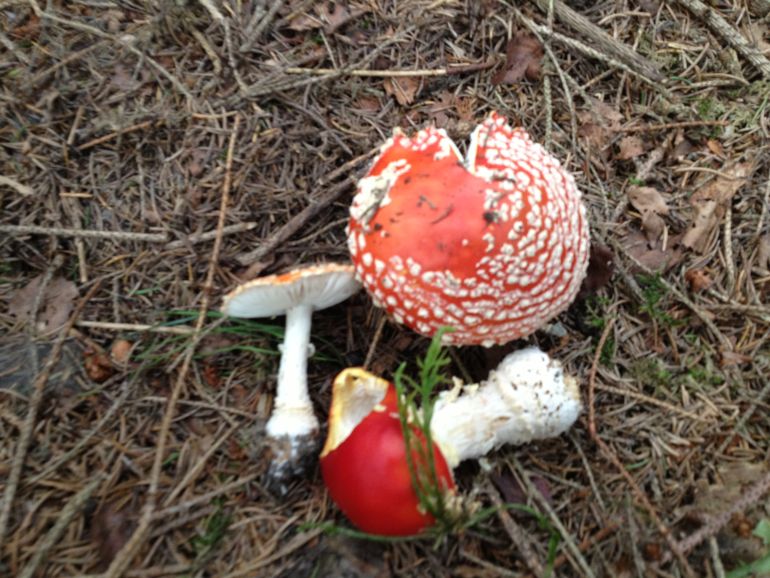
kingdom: Fungi
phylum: Basidiomycota
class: Agaricomycetes
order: Agaricales
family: Amanitaceae
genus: Amanita
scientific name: Amanita muscaria
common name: rød fluesvamp
